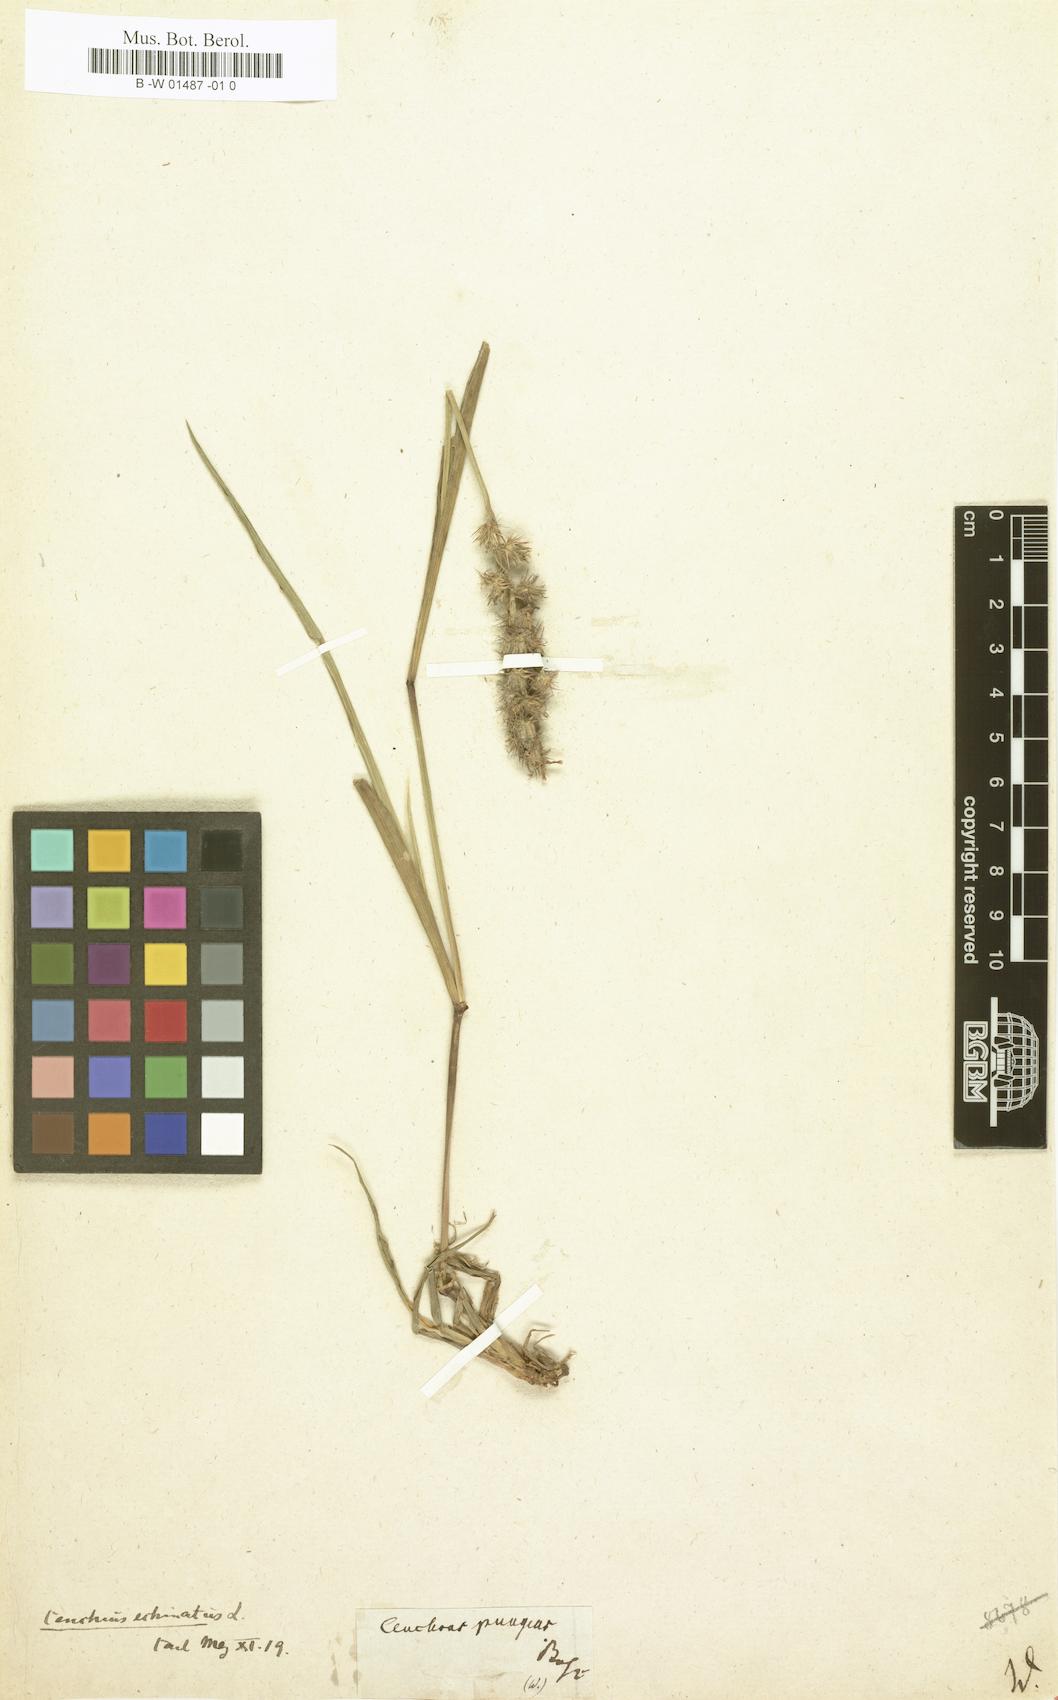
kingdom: Plantae
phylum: Tracheophyta
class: Liliopsida
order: Poales
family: Poaceae
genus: Cenchrus
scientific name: Cenchrus echinatus
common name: Southern sandbur
